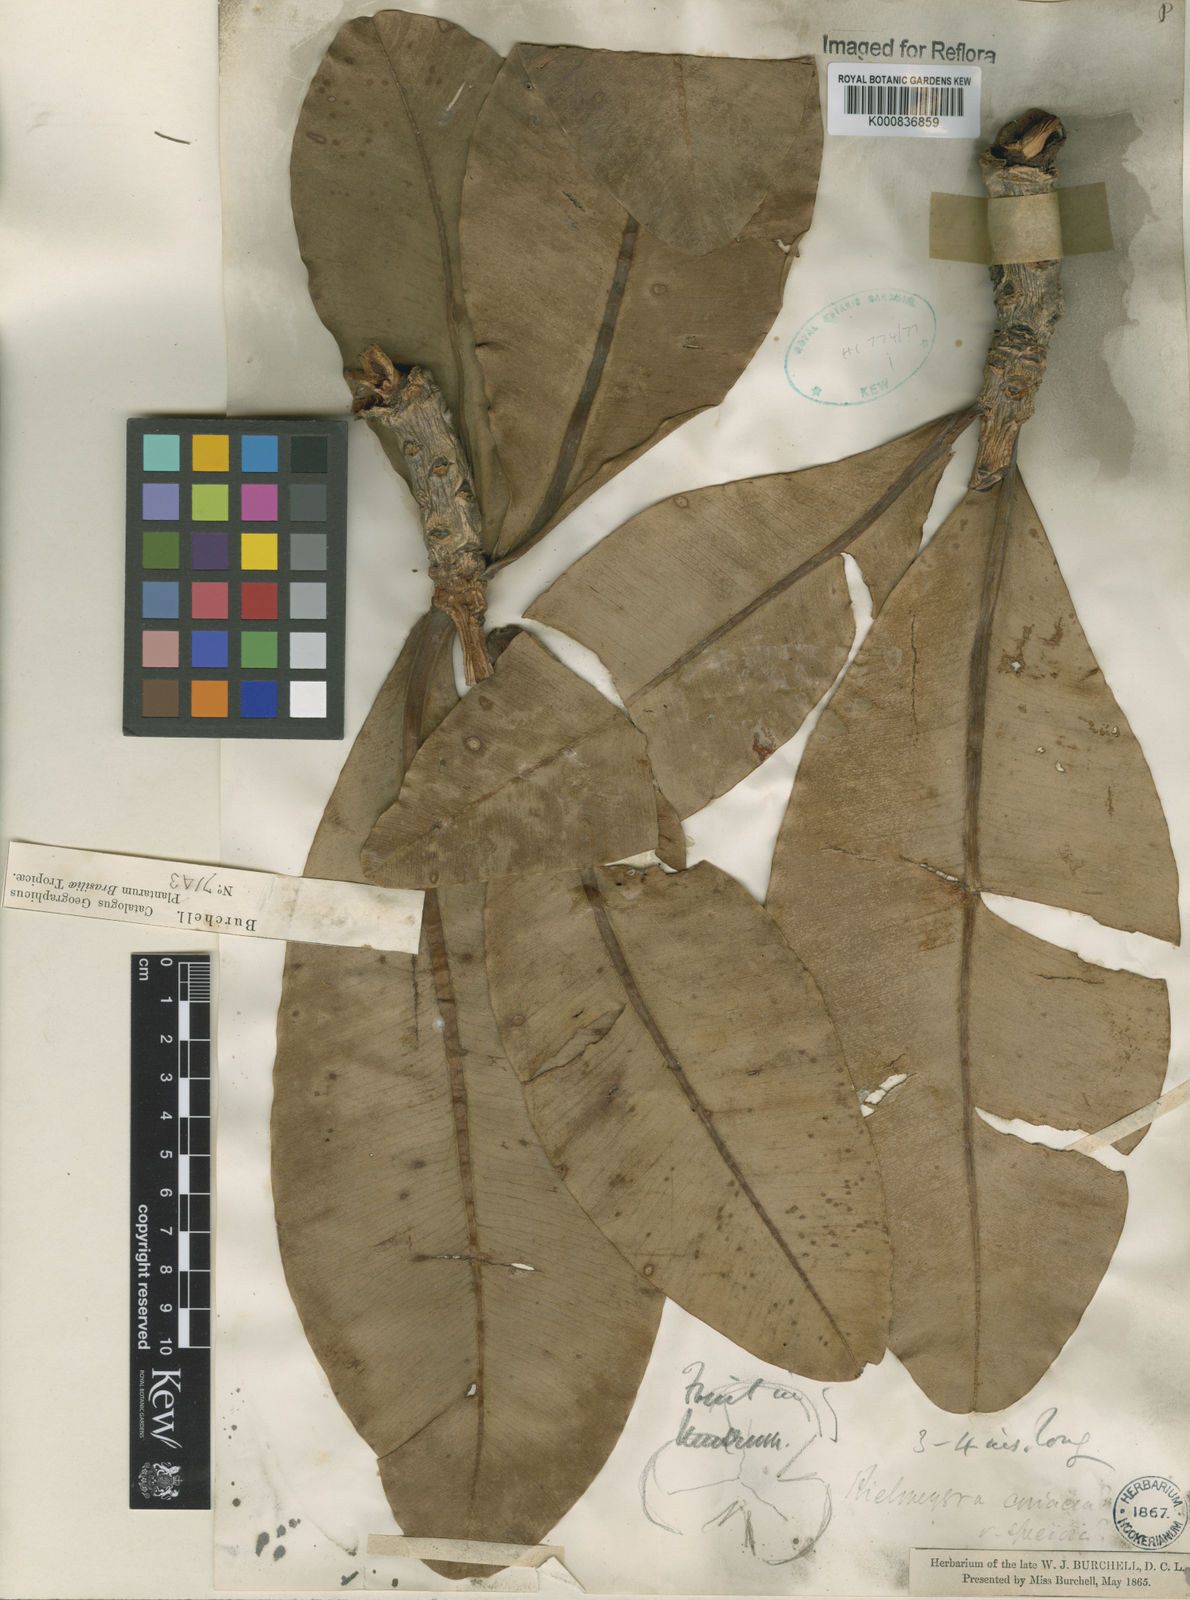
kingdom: Plantae
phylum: Tracheophyta
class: Magnoliopsida
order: Malpighiales
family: Calophyllaceae
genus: Kielmeyera
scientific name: Kielmeyera coriacea
